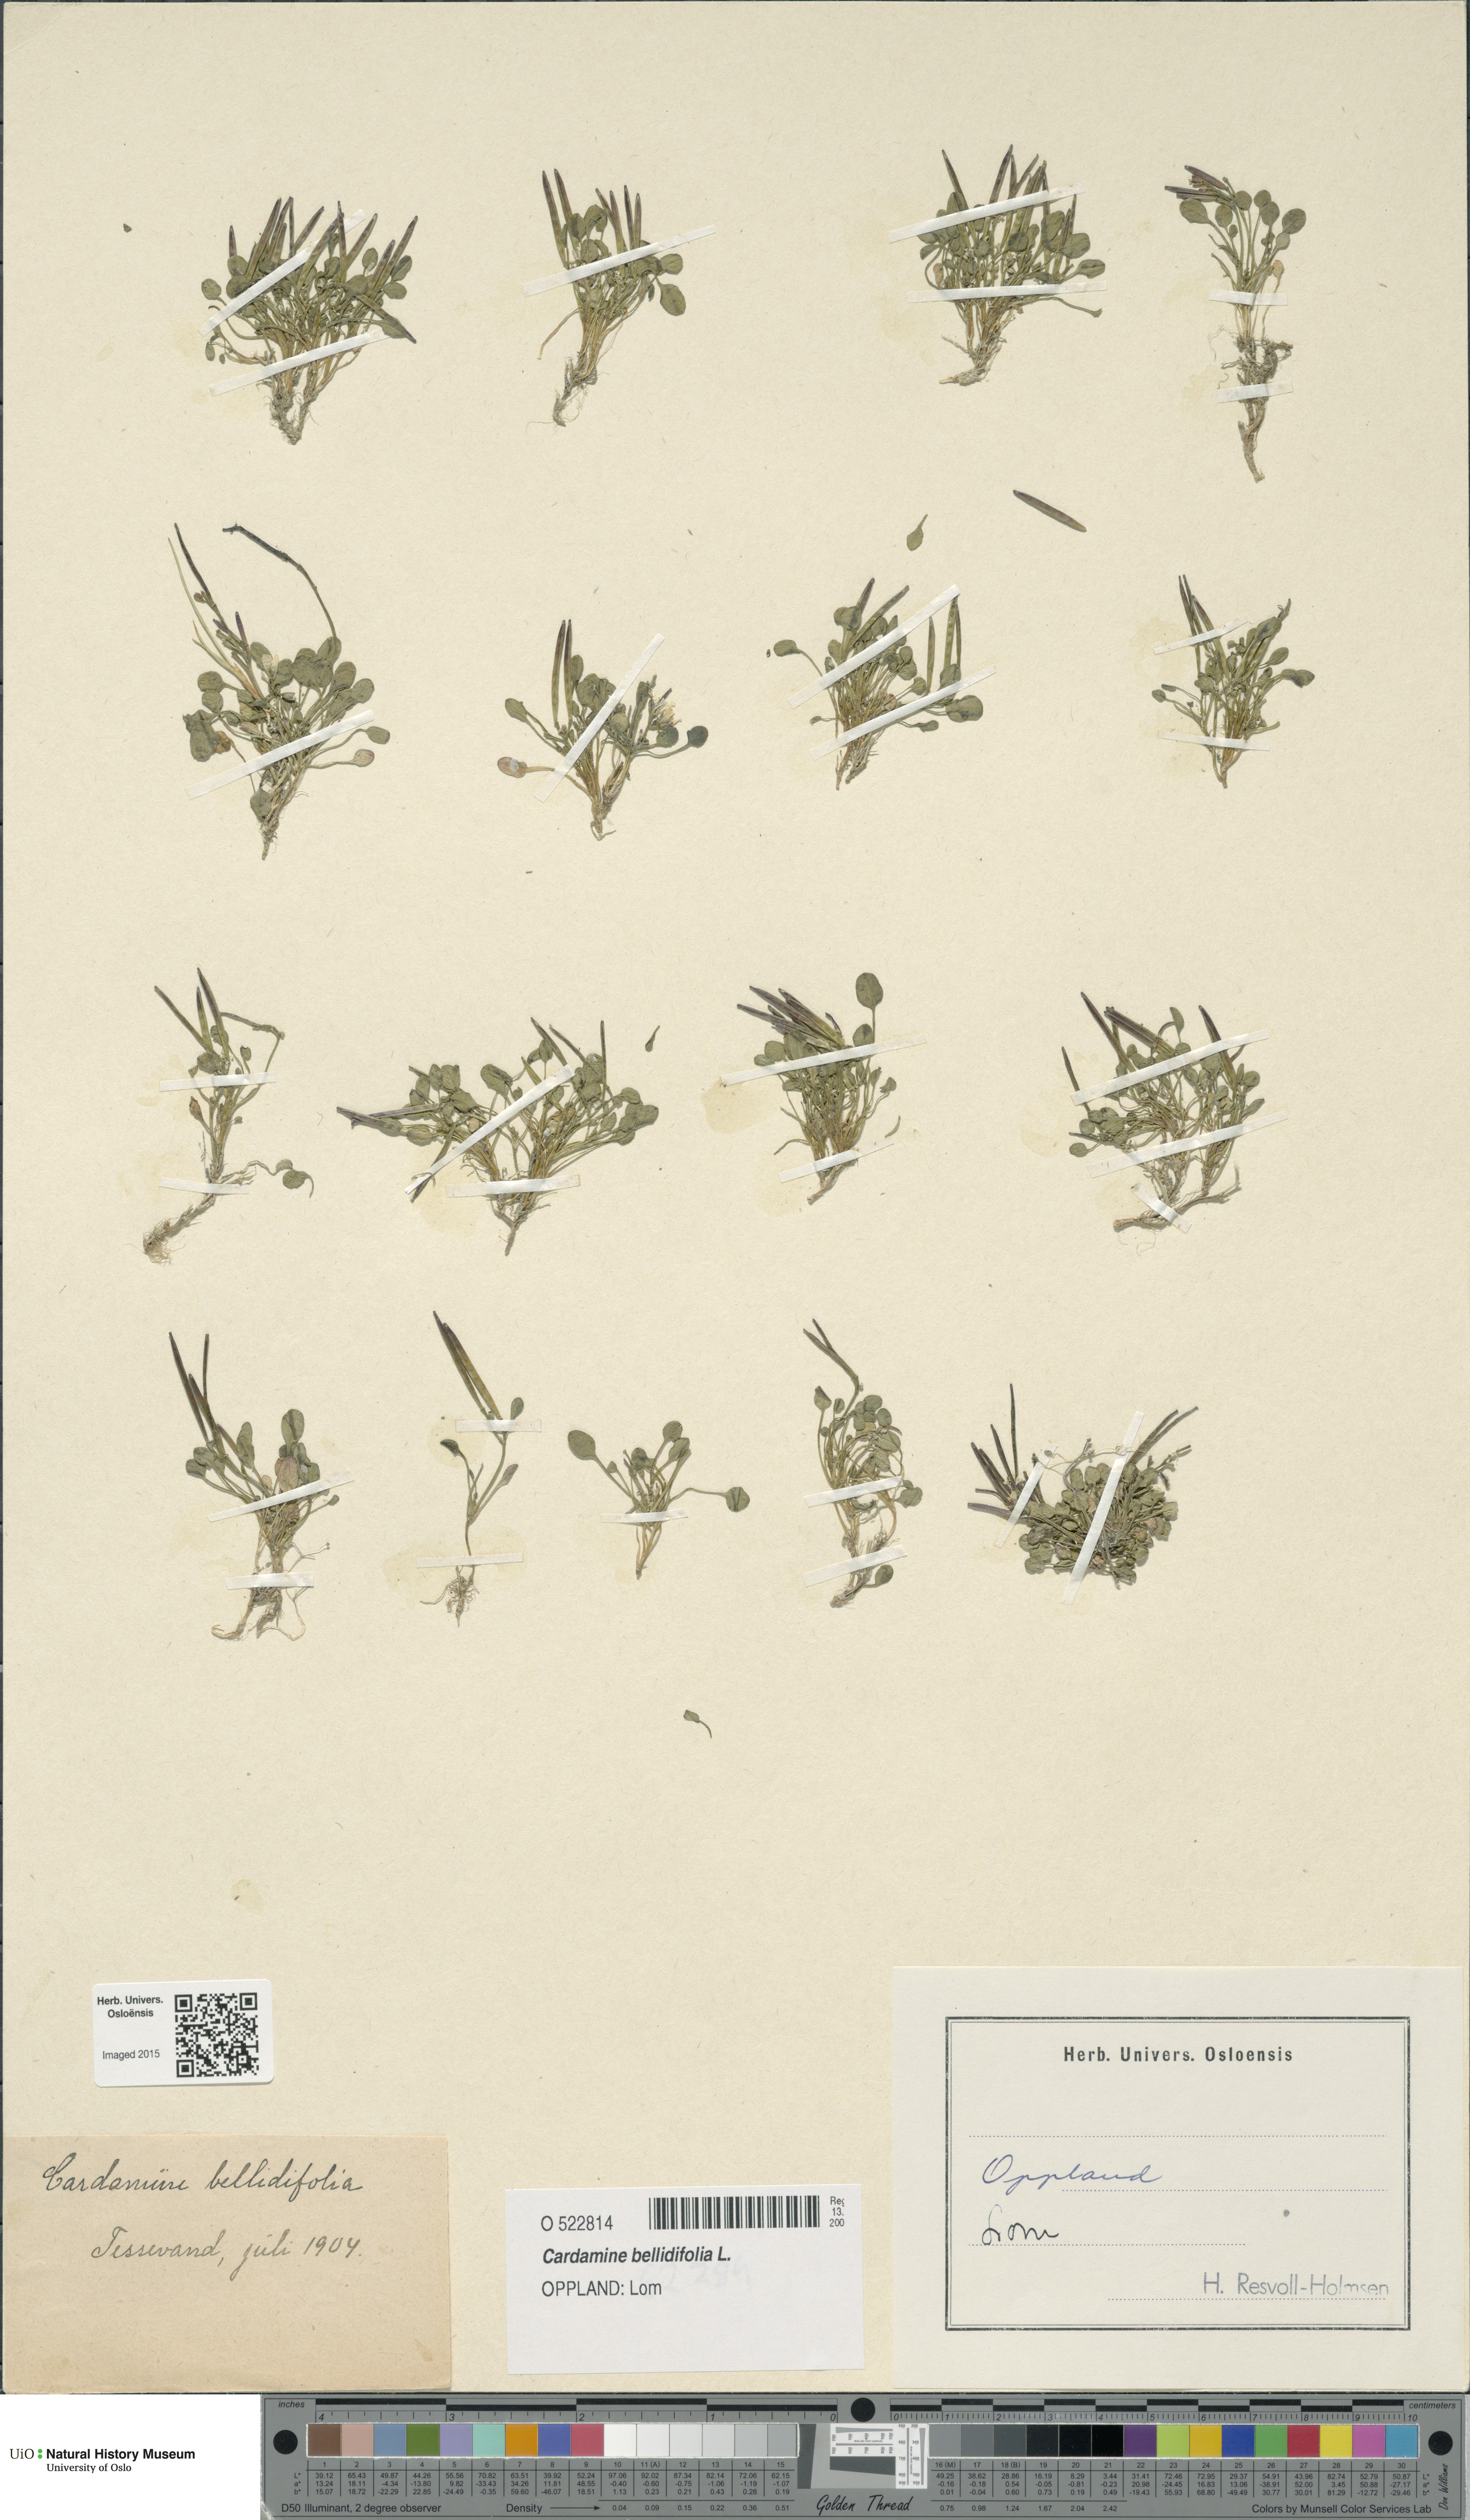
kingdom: Plantae
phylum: Tracheophyta
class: Magnoliopsida
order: Brassicales
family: Brassicaceae
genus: Cardamine
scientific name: Cardamine bellidifolia
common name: Alpine bittercress
